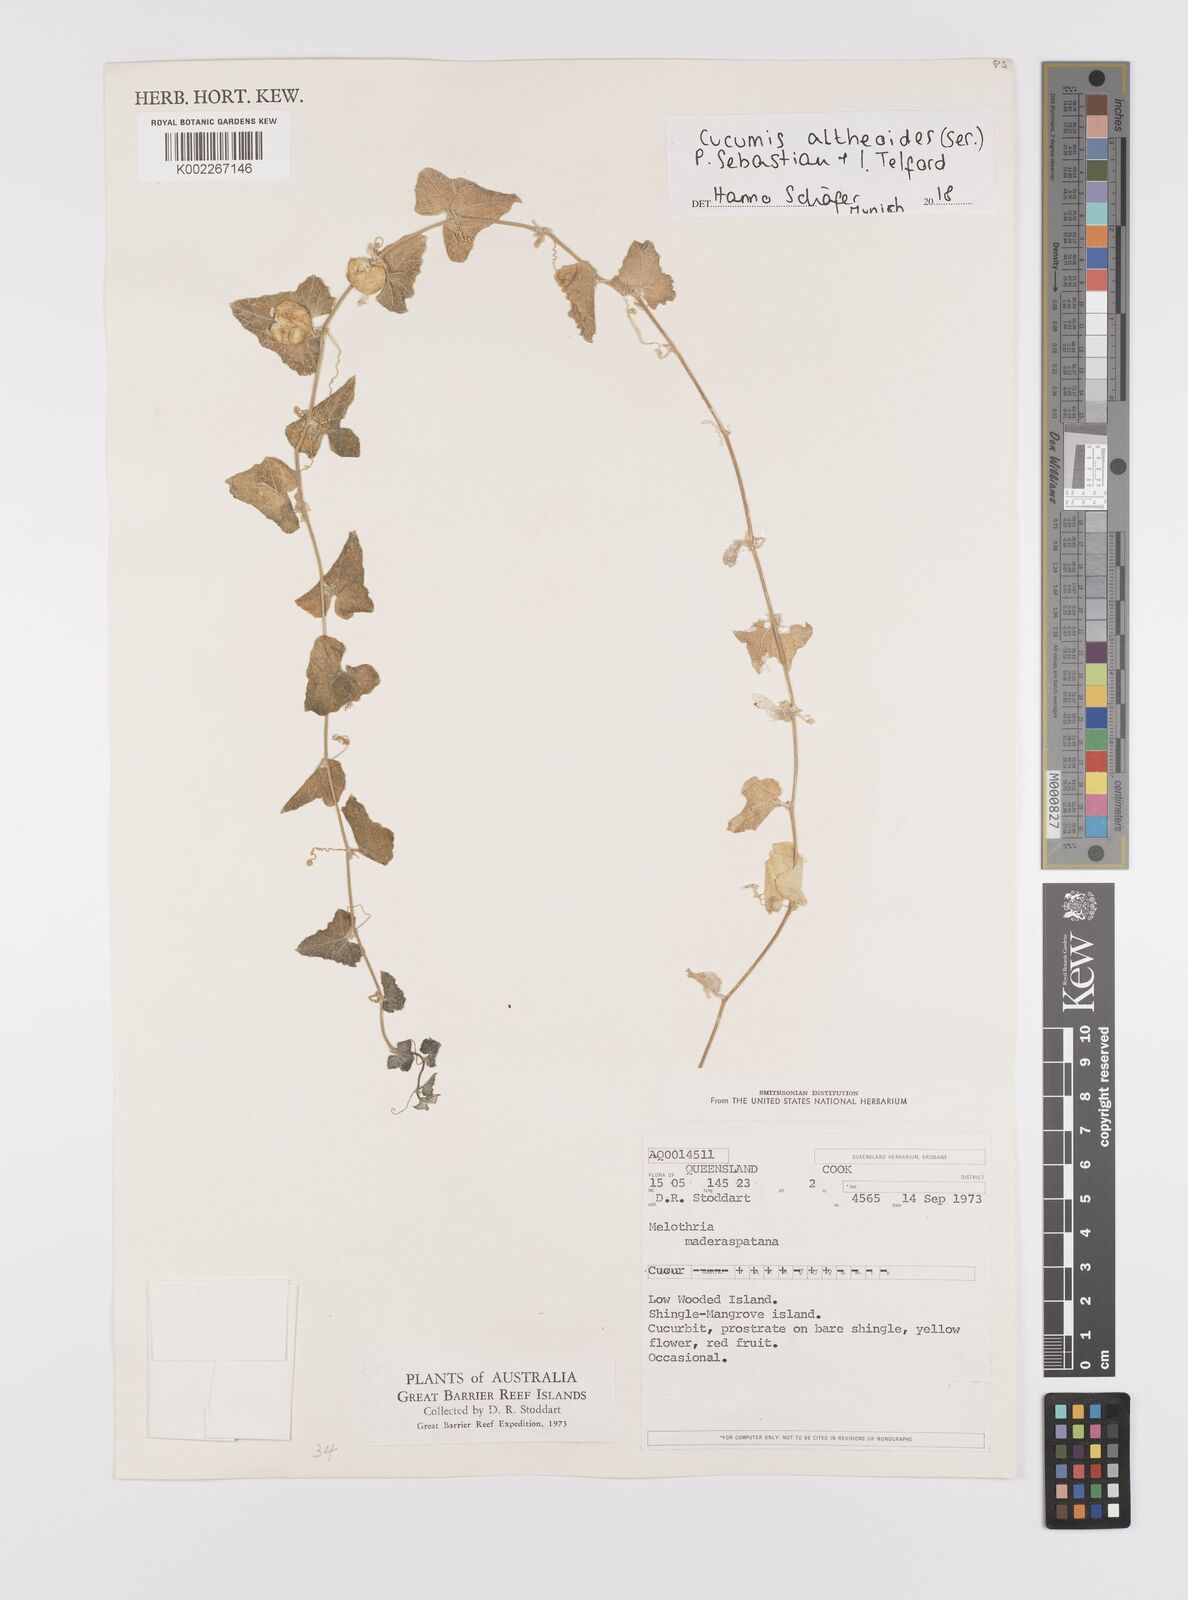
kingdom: Plantae
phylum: Tracheophyta
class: Magnoliopsida
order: Cucurbitales
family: Cucurbitaceae
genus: Cucumis
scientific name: Cucumis althaeoides
